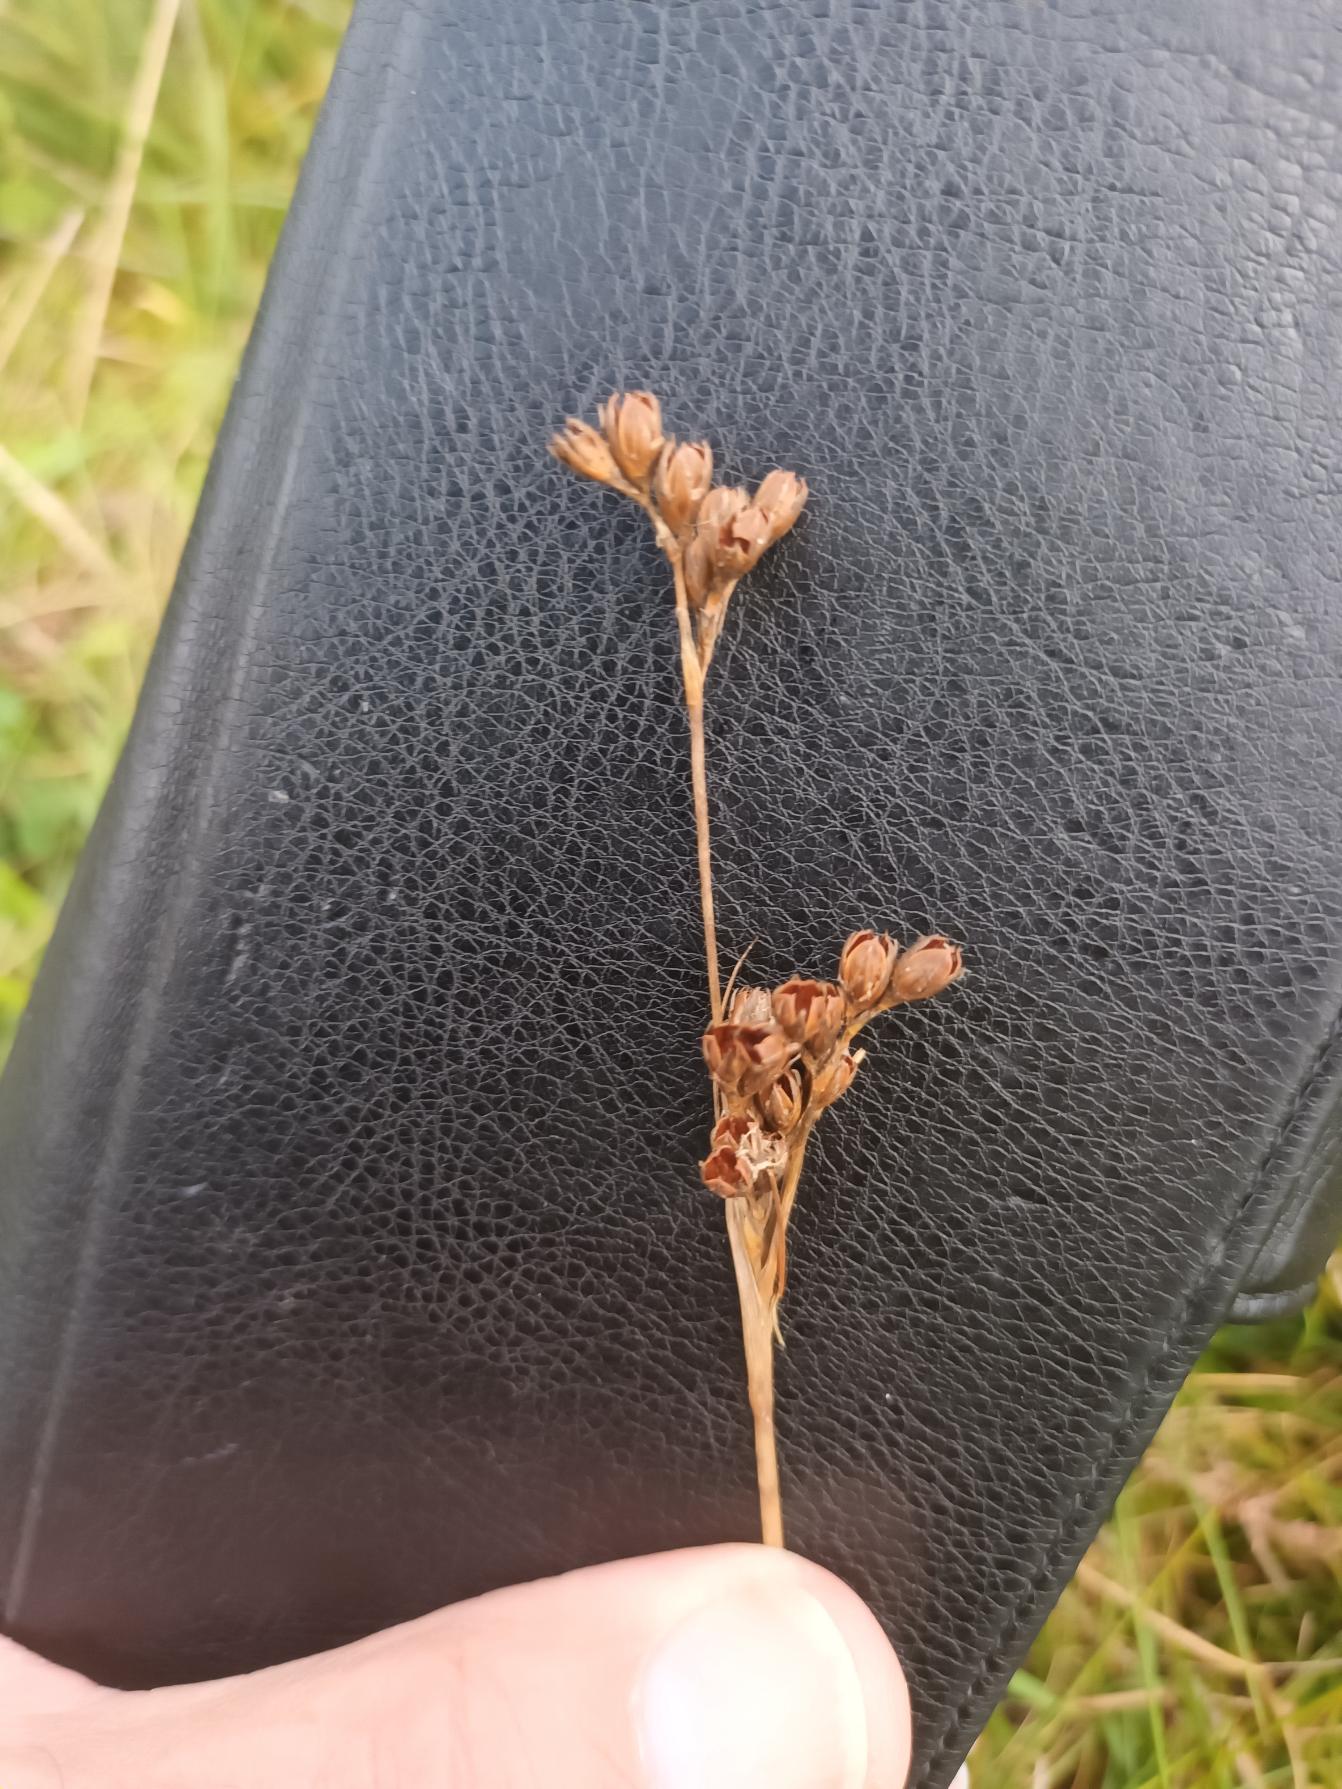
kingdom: Plantae
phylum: Tracheophyta
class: Liliopsida
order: Poales
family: Juncaceae
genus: Juncus
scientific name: Juncus squarrosus
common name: Børste-siv
